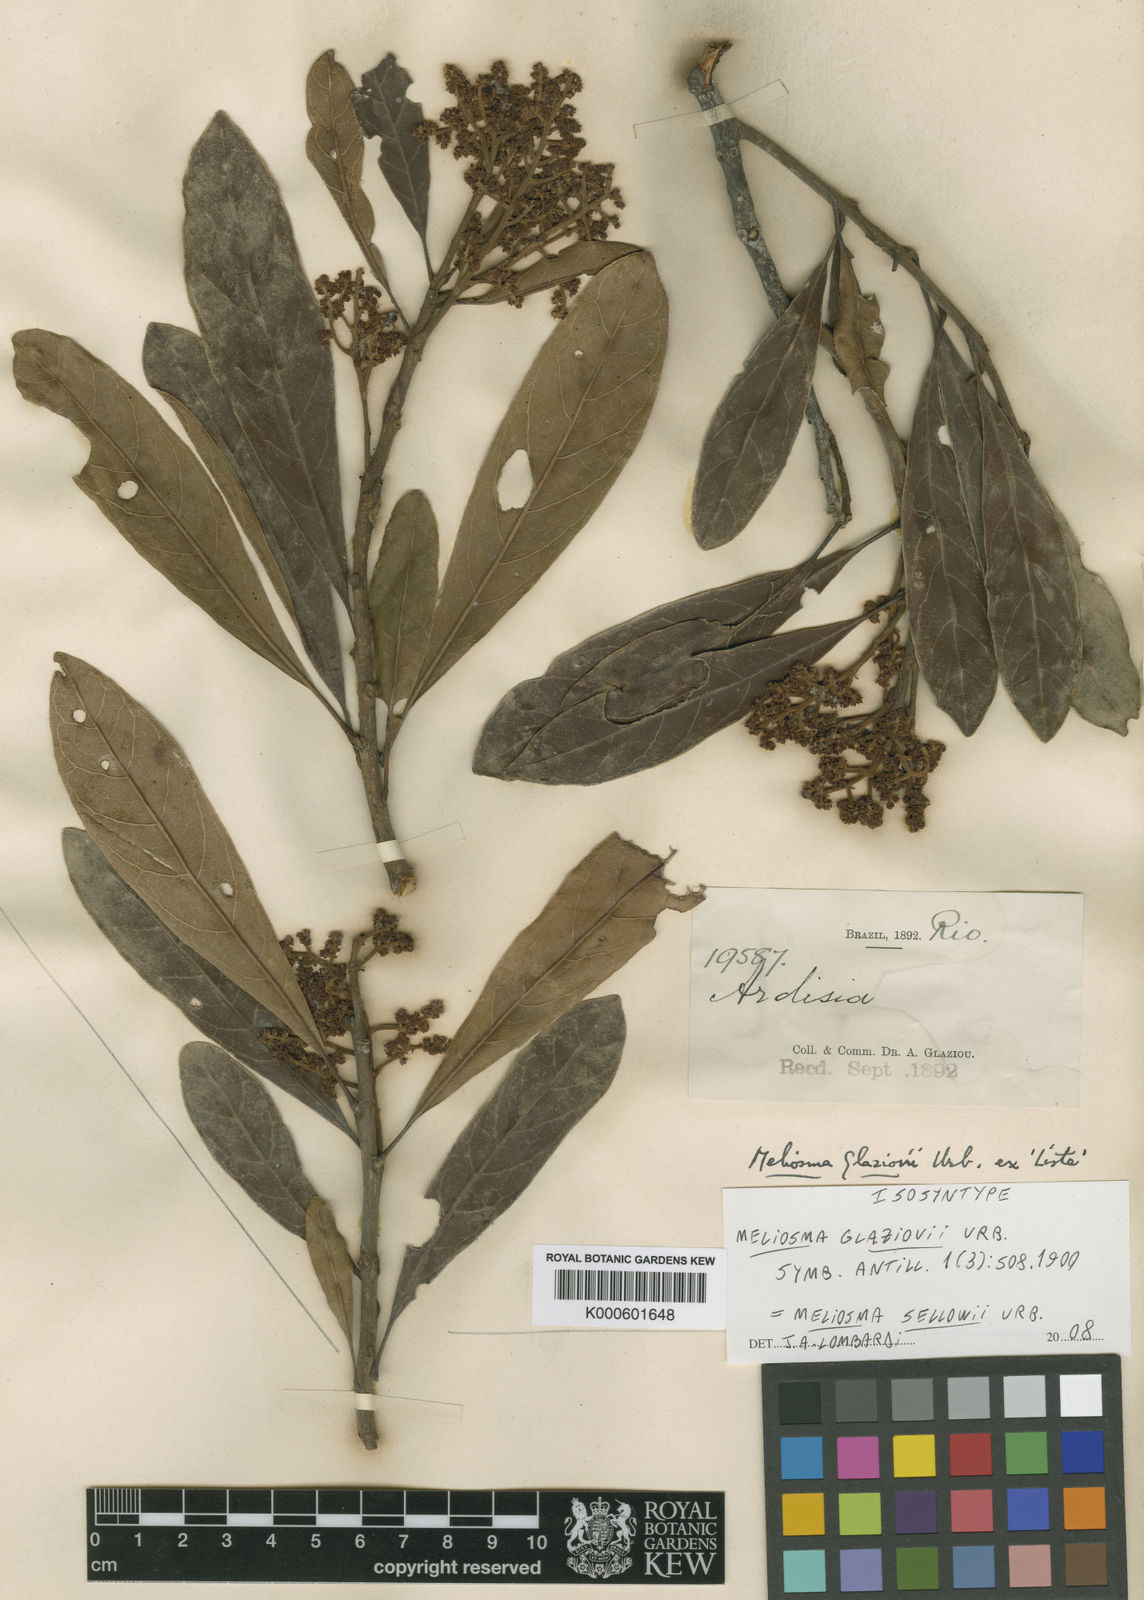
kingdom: Plantae
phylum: Tracheophyta
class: Magnoliopsida
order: Proteales
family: Sabiaceae
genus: Meliosma
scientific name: Meliosma sellowii
